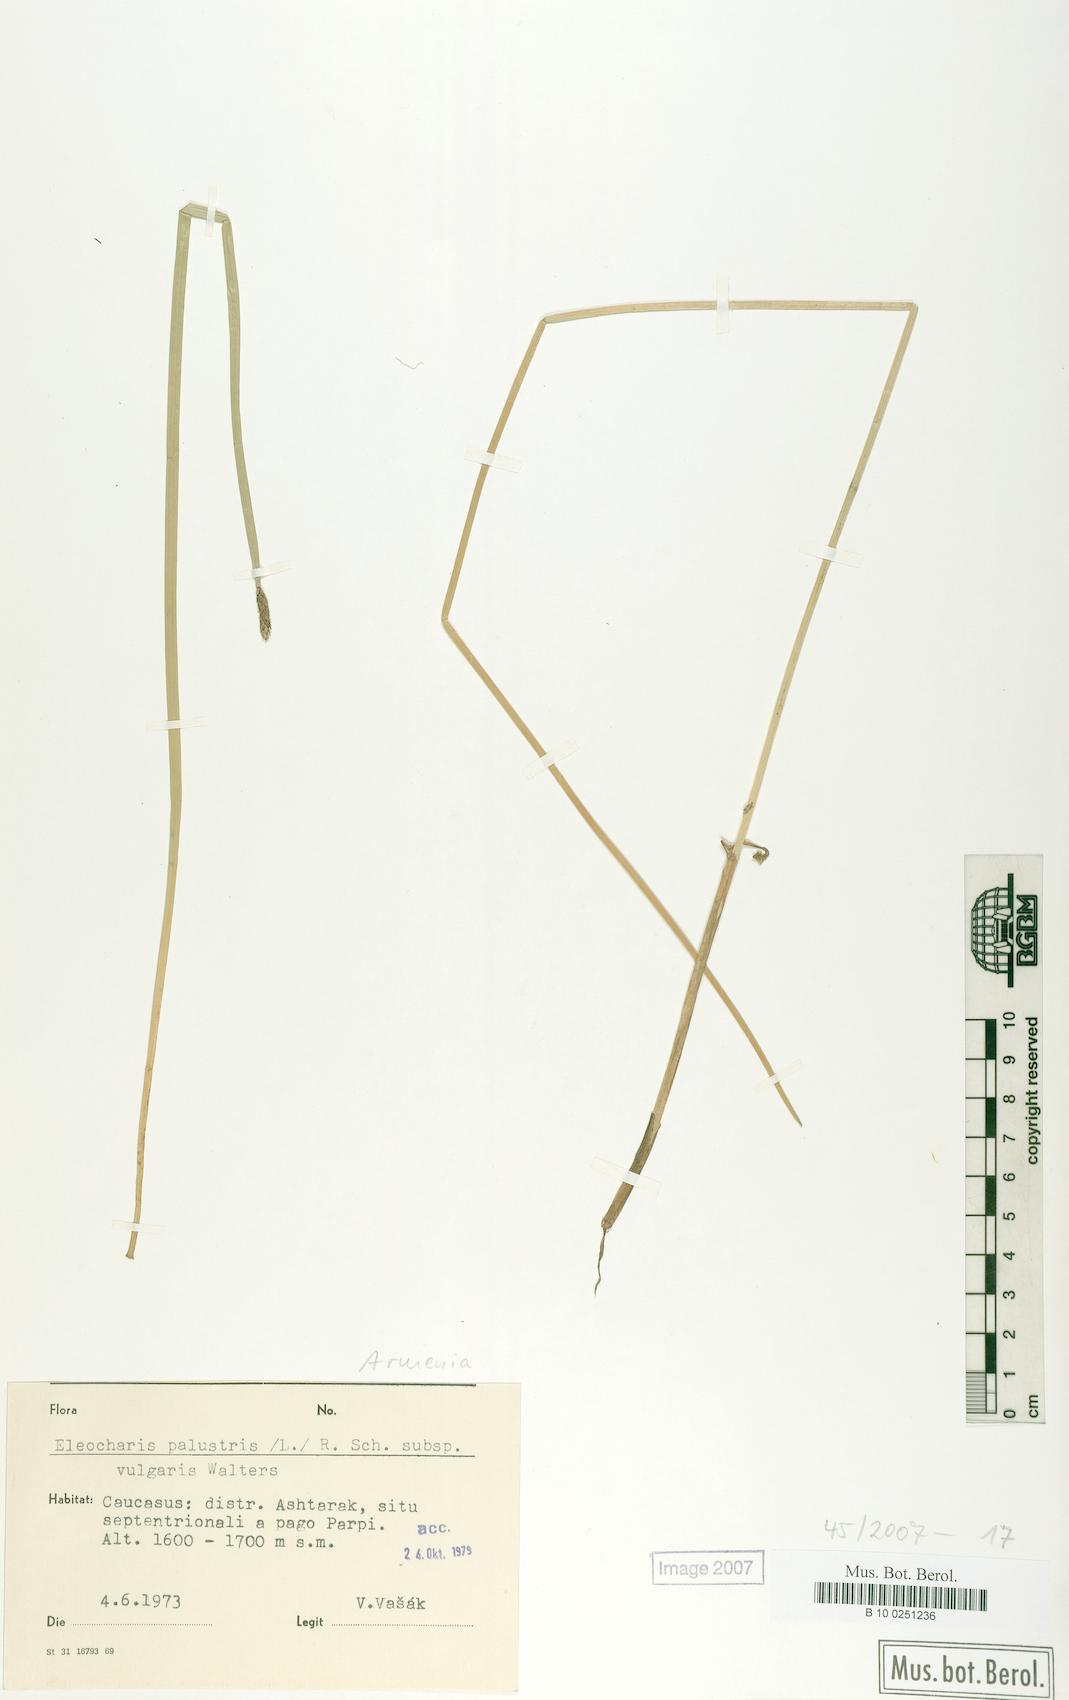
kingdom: Plantae
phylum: Tracheophyta
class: Liliopsida
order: Poales
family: Cyperaceae
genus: Eleocharis
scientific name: Eleocharis palustris
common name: Common spike-rush
